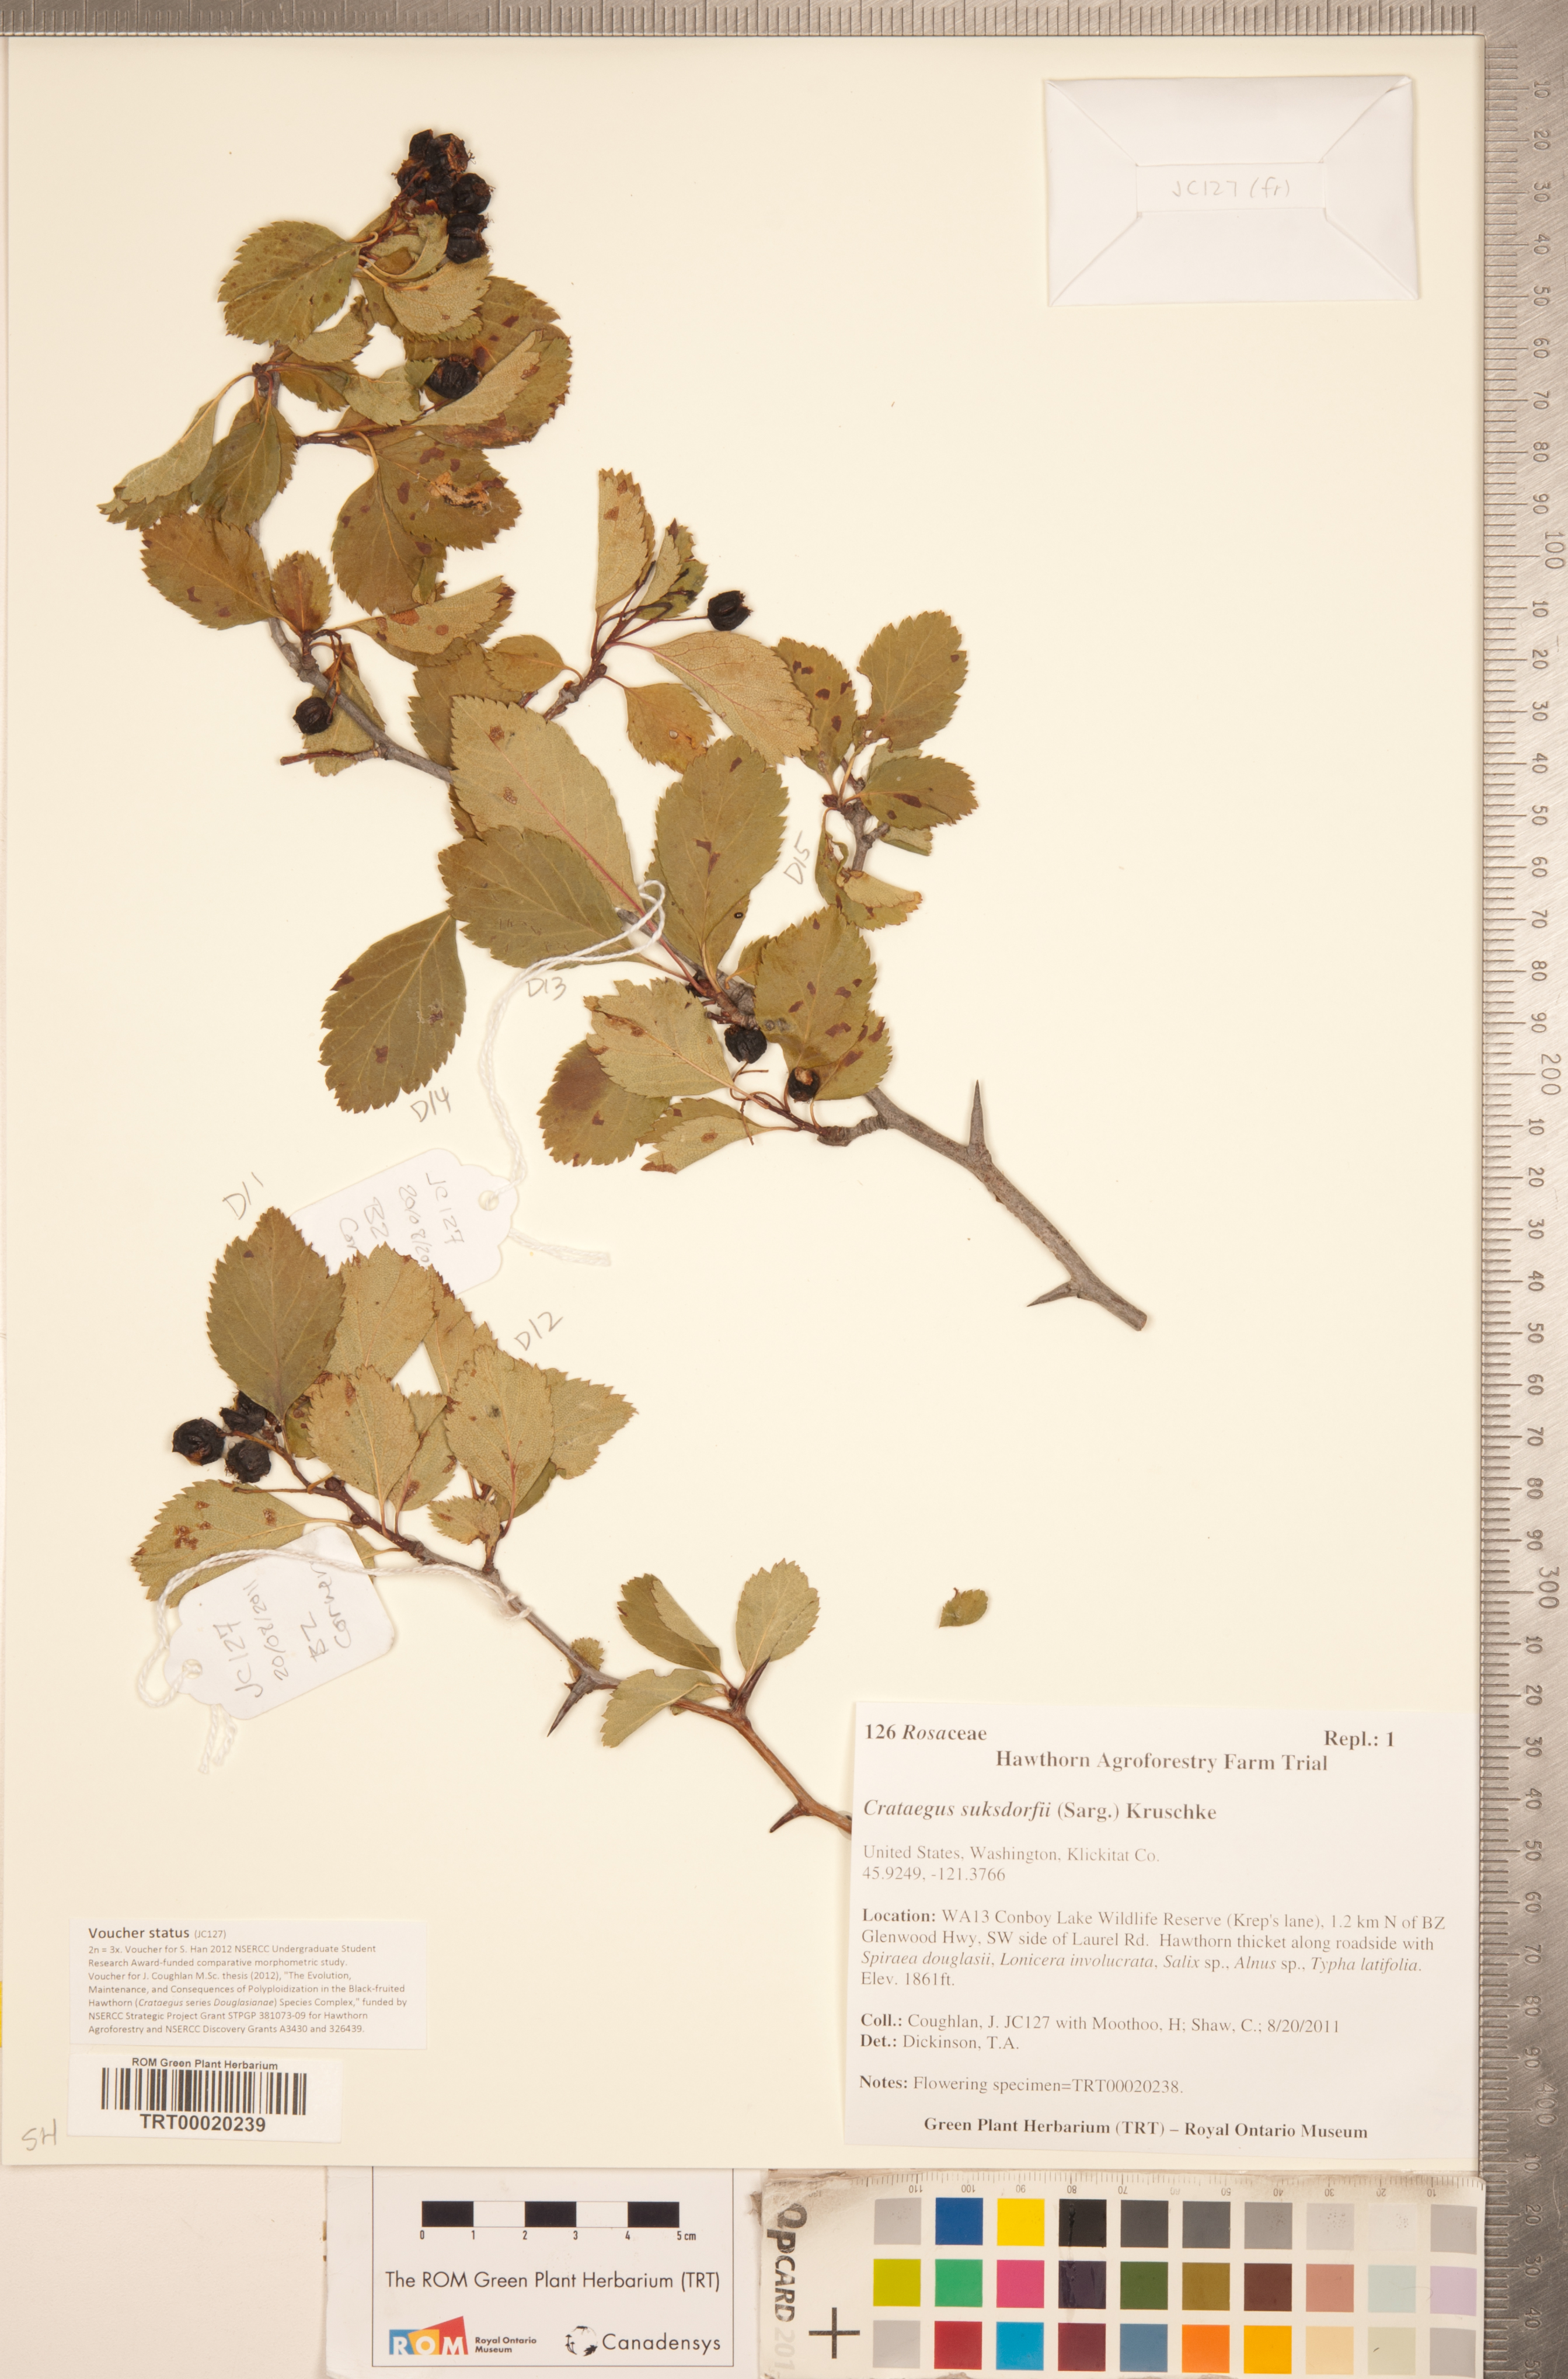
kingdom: Plantae
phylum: Tracheophyta
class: Magnoliopsida
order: Rosales
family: Rosaceae
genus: Crataegus
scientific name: Crataegus gaylussacia
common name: Huckleberry hawthorn
